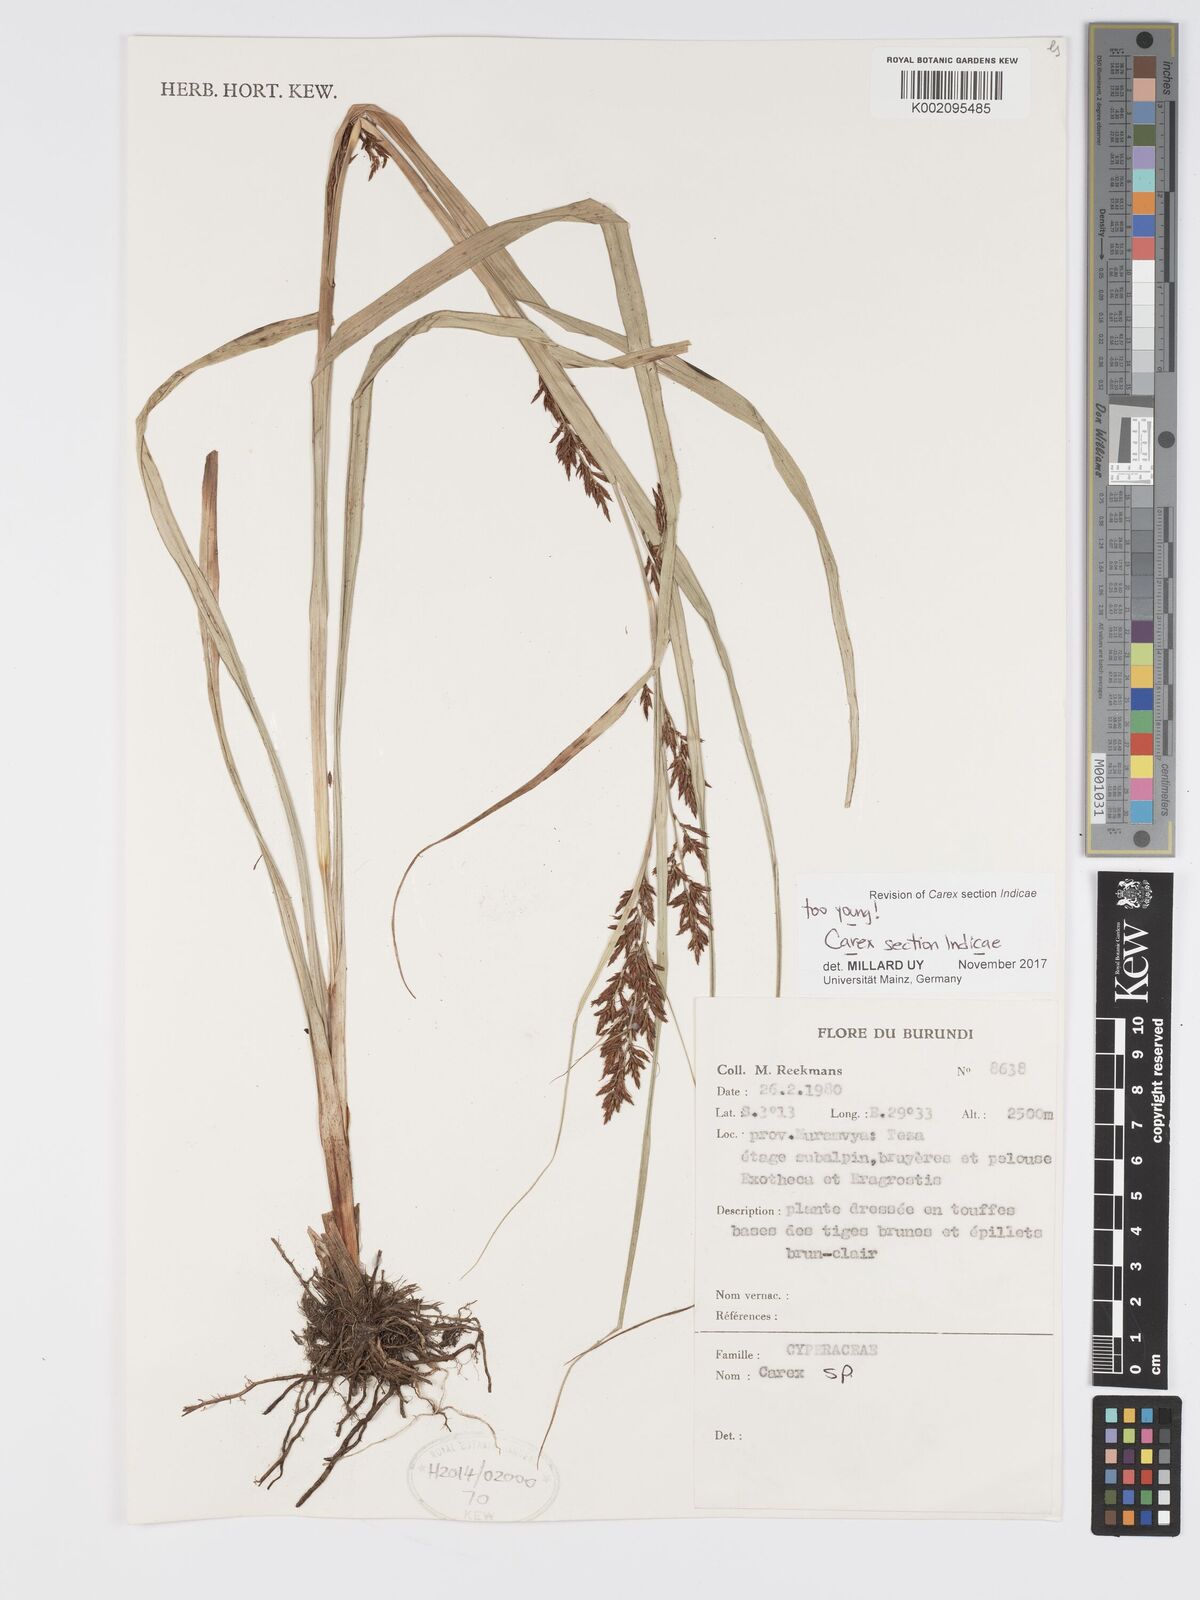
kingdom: Plantae
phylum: Tracheophyta
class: Liliopsida
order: Poales
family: Cyperaceae
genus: Carex
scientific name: Carex
